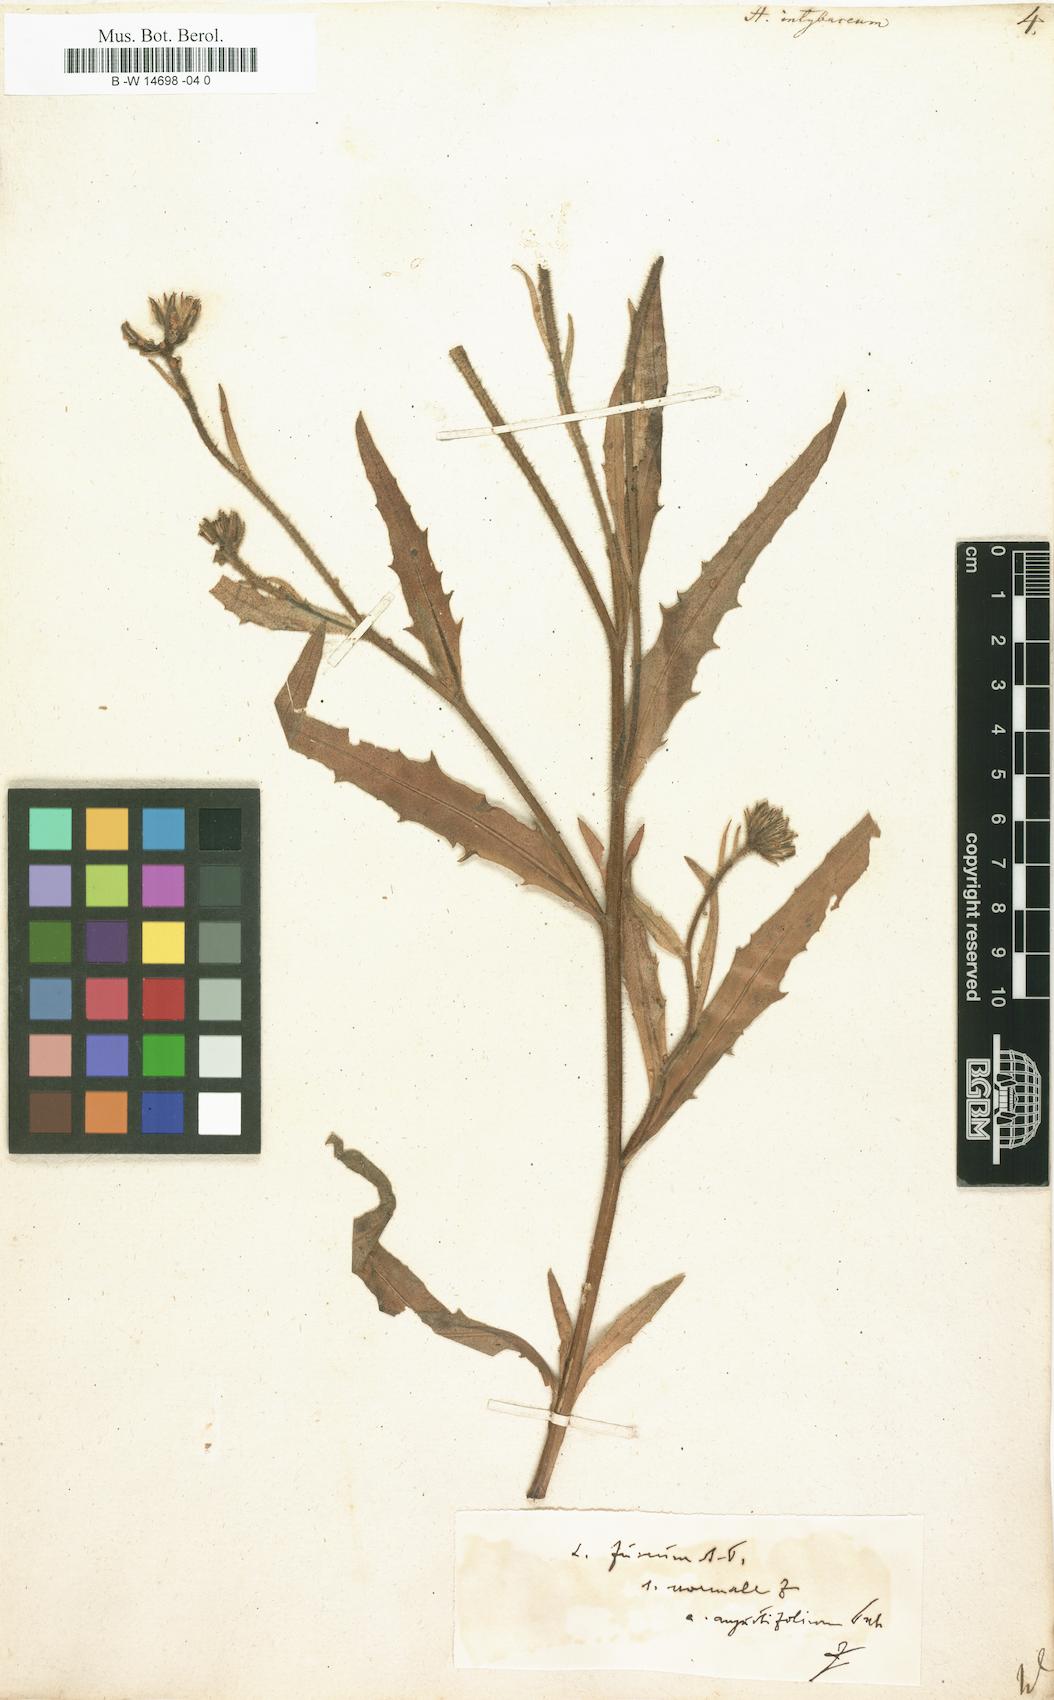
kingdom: Plantae
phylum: Tracheophyta
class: Magnoliopsida
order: Asterales
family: Asteraceae
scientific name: Asteraceae
